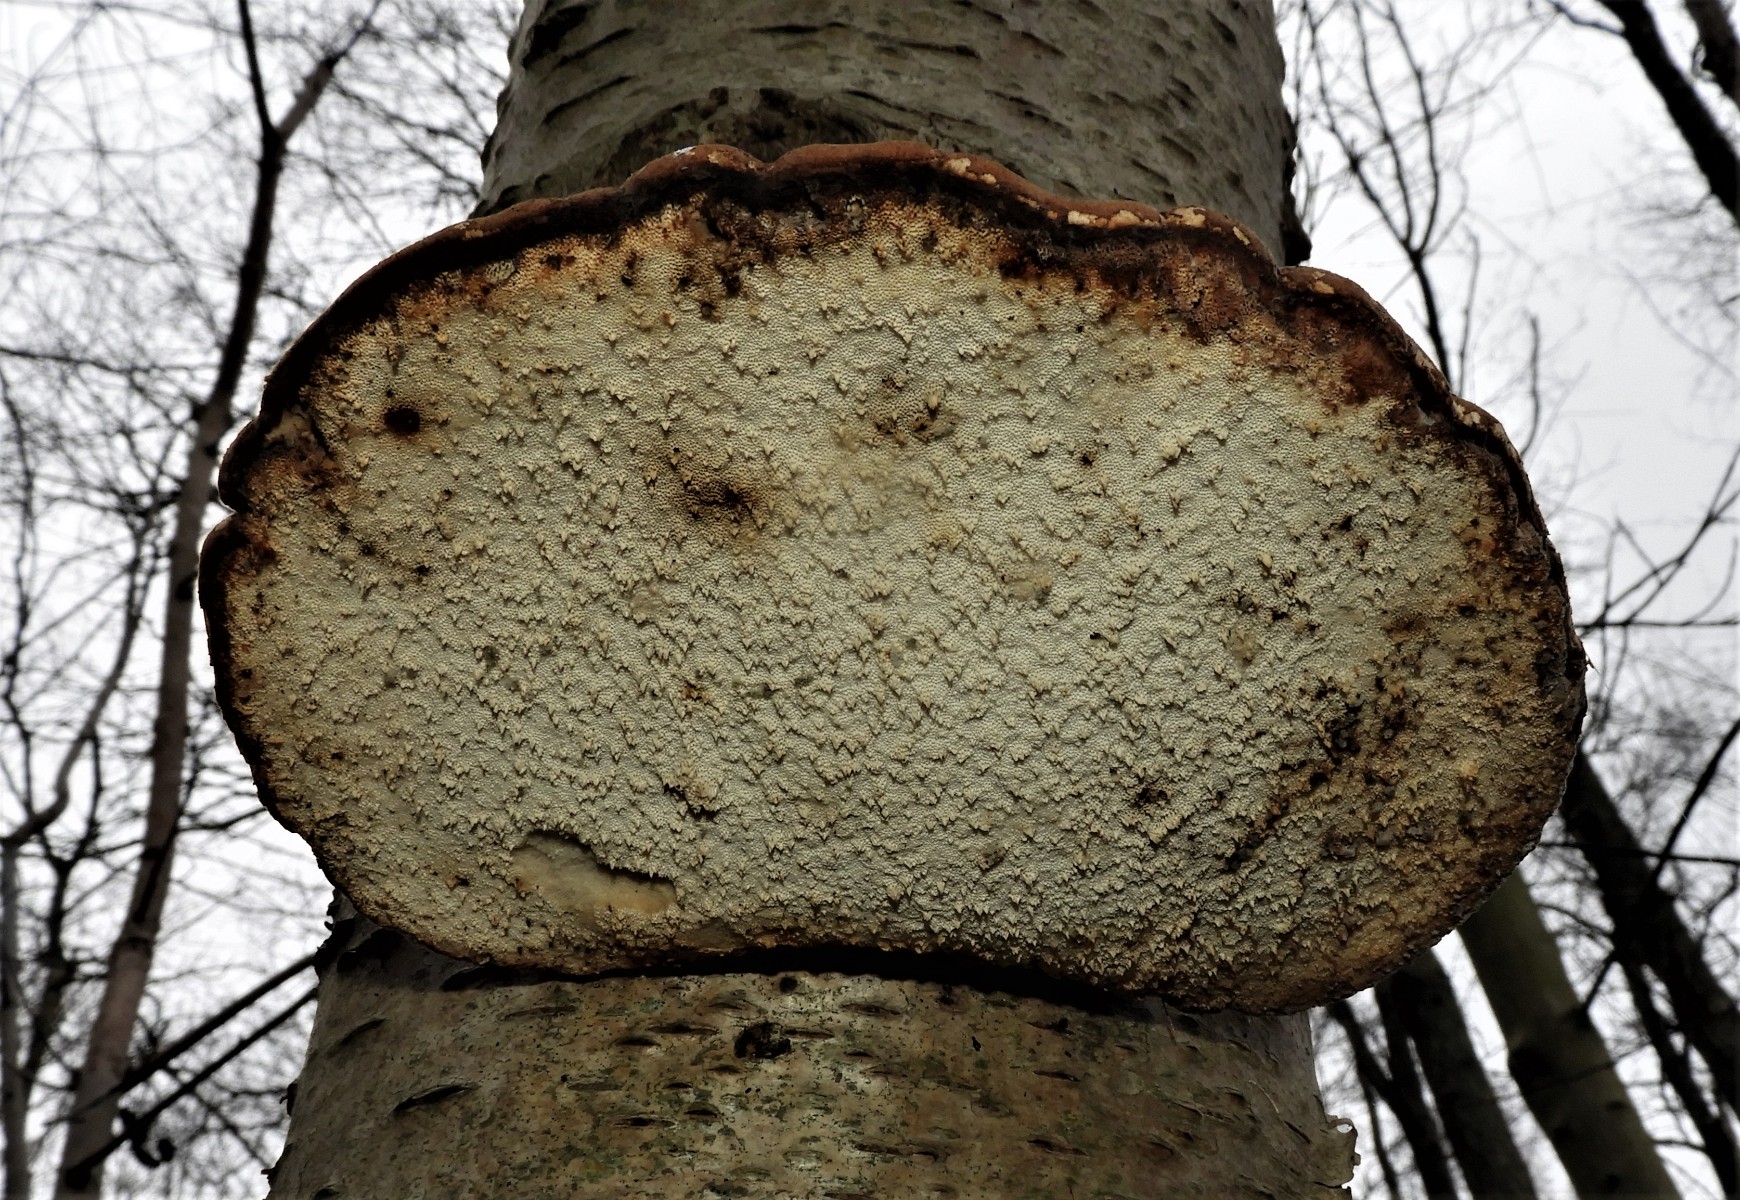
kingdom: Fungi
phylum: Basidiomycota
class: Agaricomycetes
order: Polyporales
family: Fomitopsidaceae
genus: Fomitopsis
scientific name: Fomitopsis betulina
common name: birkeporesvamp
